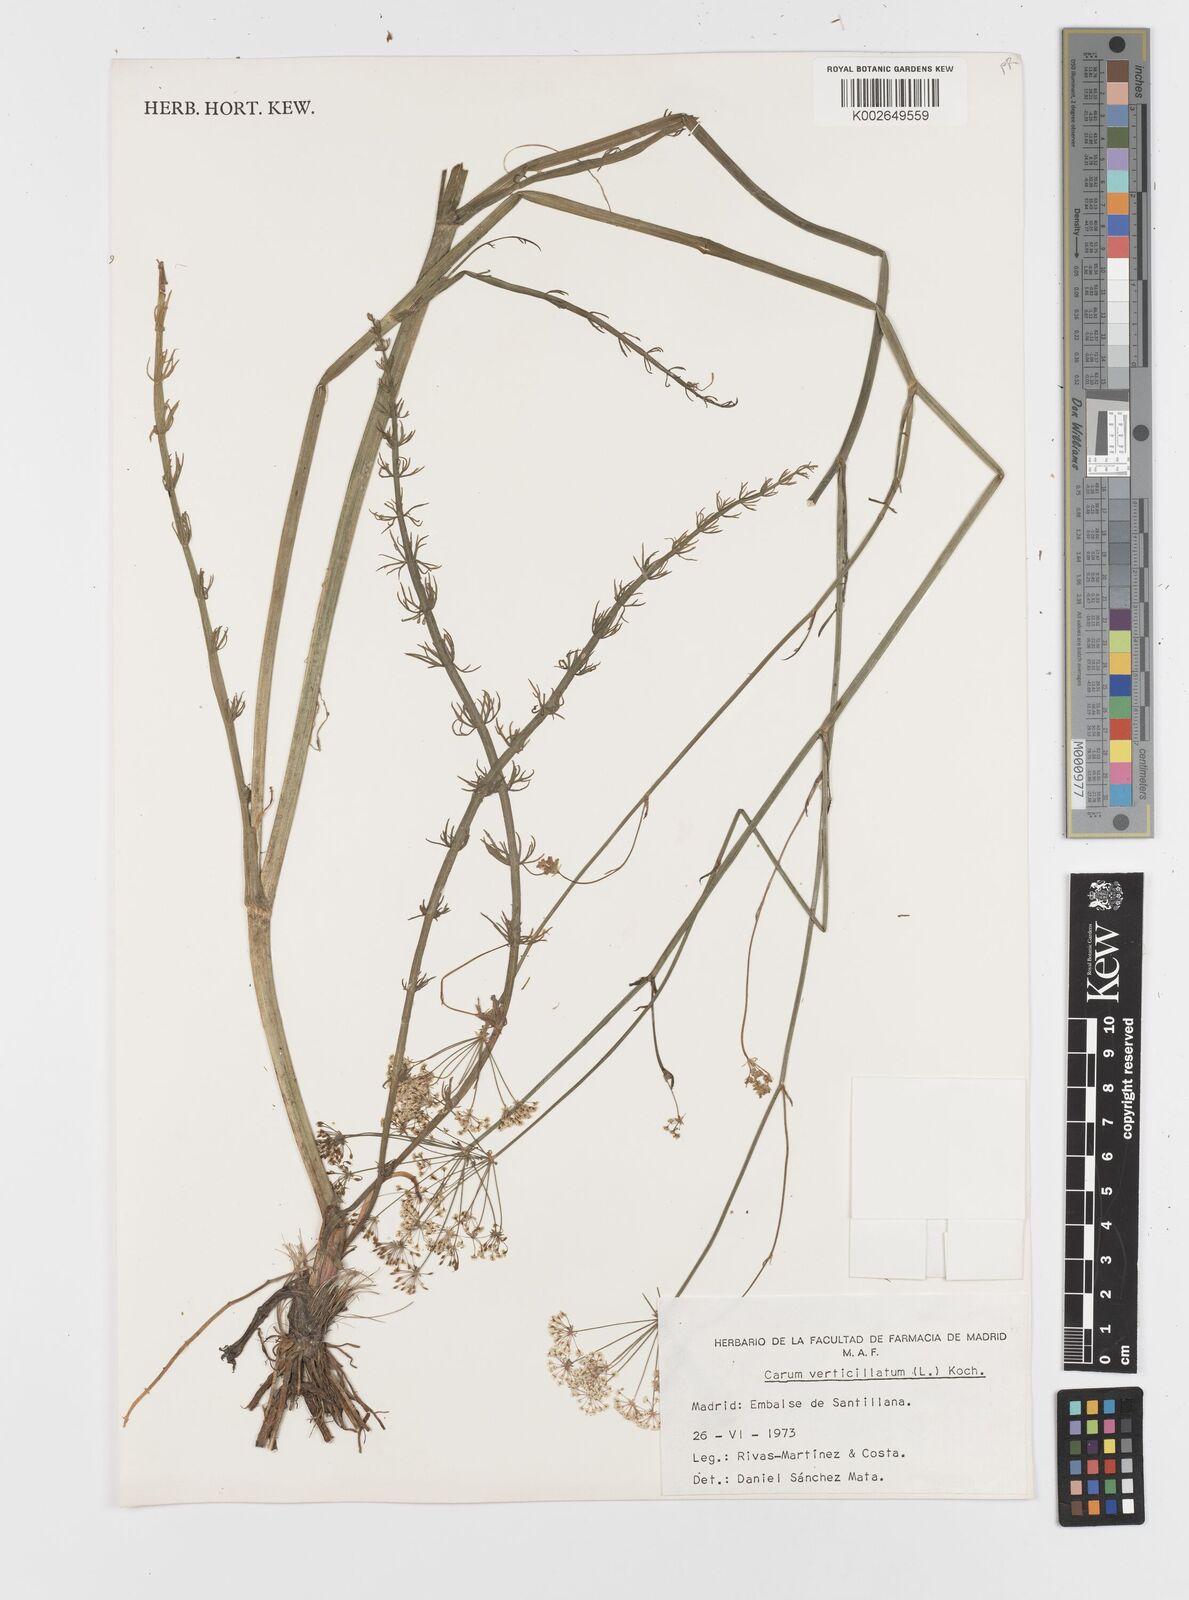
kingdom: Plantae
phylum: Tracheophyta
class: Magnoliopsida
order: Apiales
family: Apiaceae
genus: Trocdaris
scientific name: Trocdaris verticillatum
